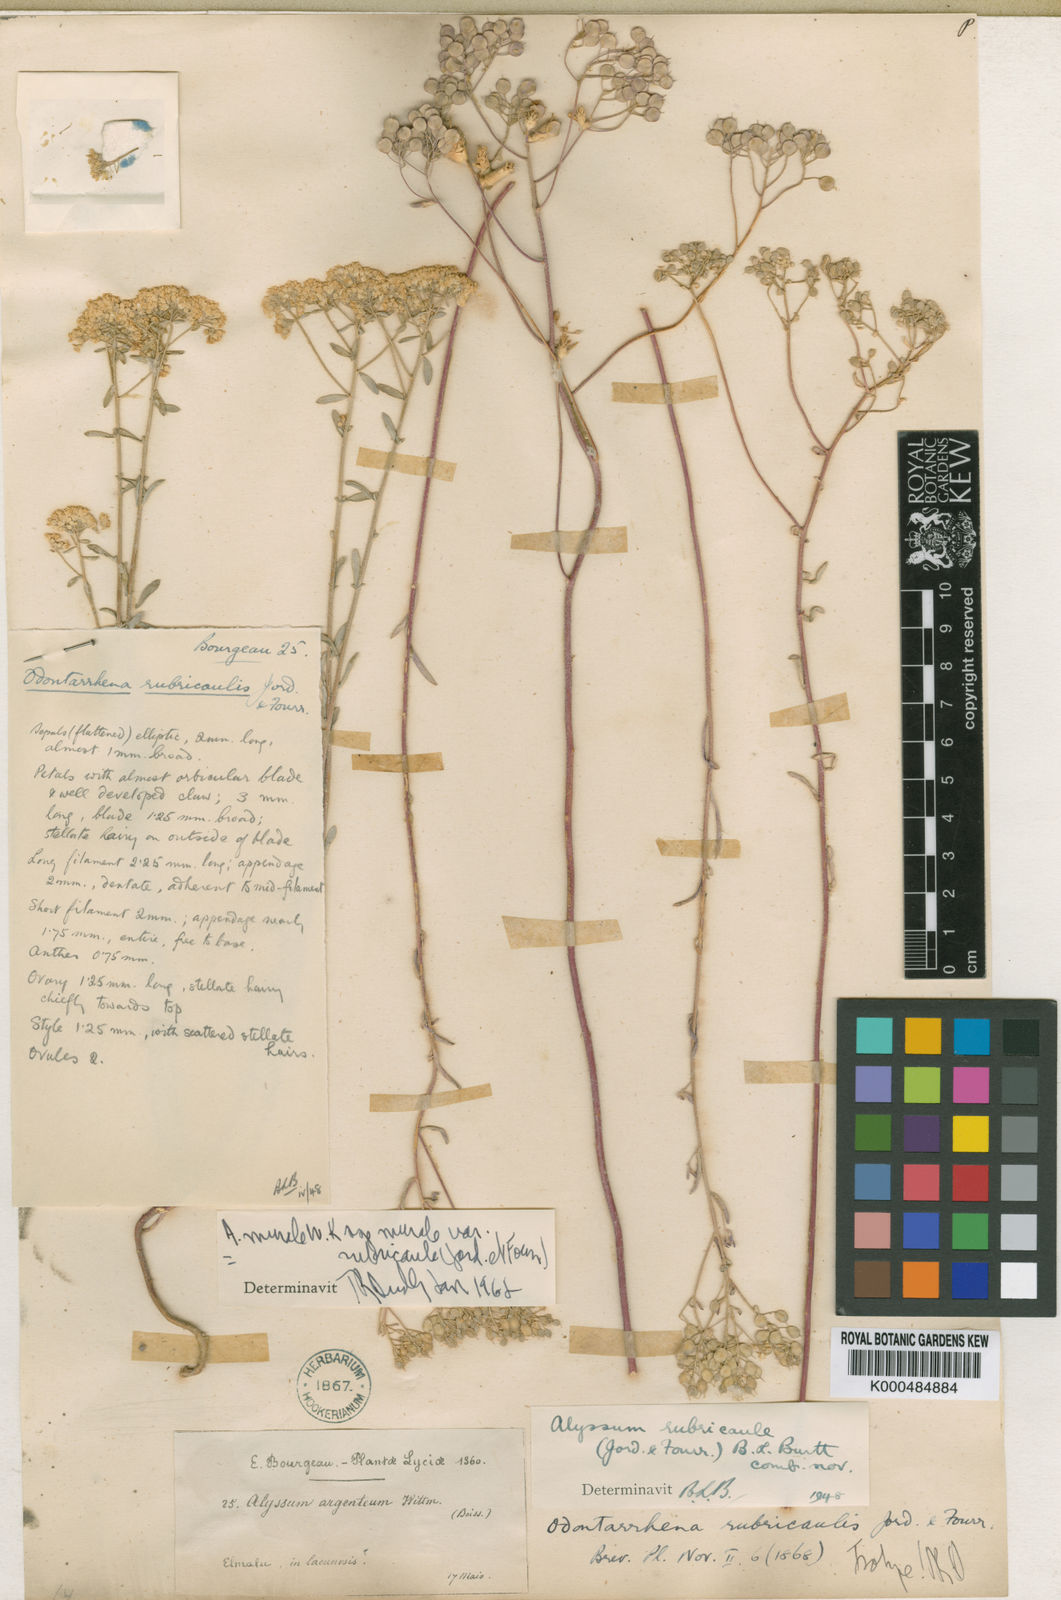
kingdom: Plantae
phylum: Tracheophyta
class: Magnoliopsida
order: Brassicales
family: Brassicaceae
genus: Odontarrhena
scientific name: Odontarrhena muralis
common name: Rock alyssum
